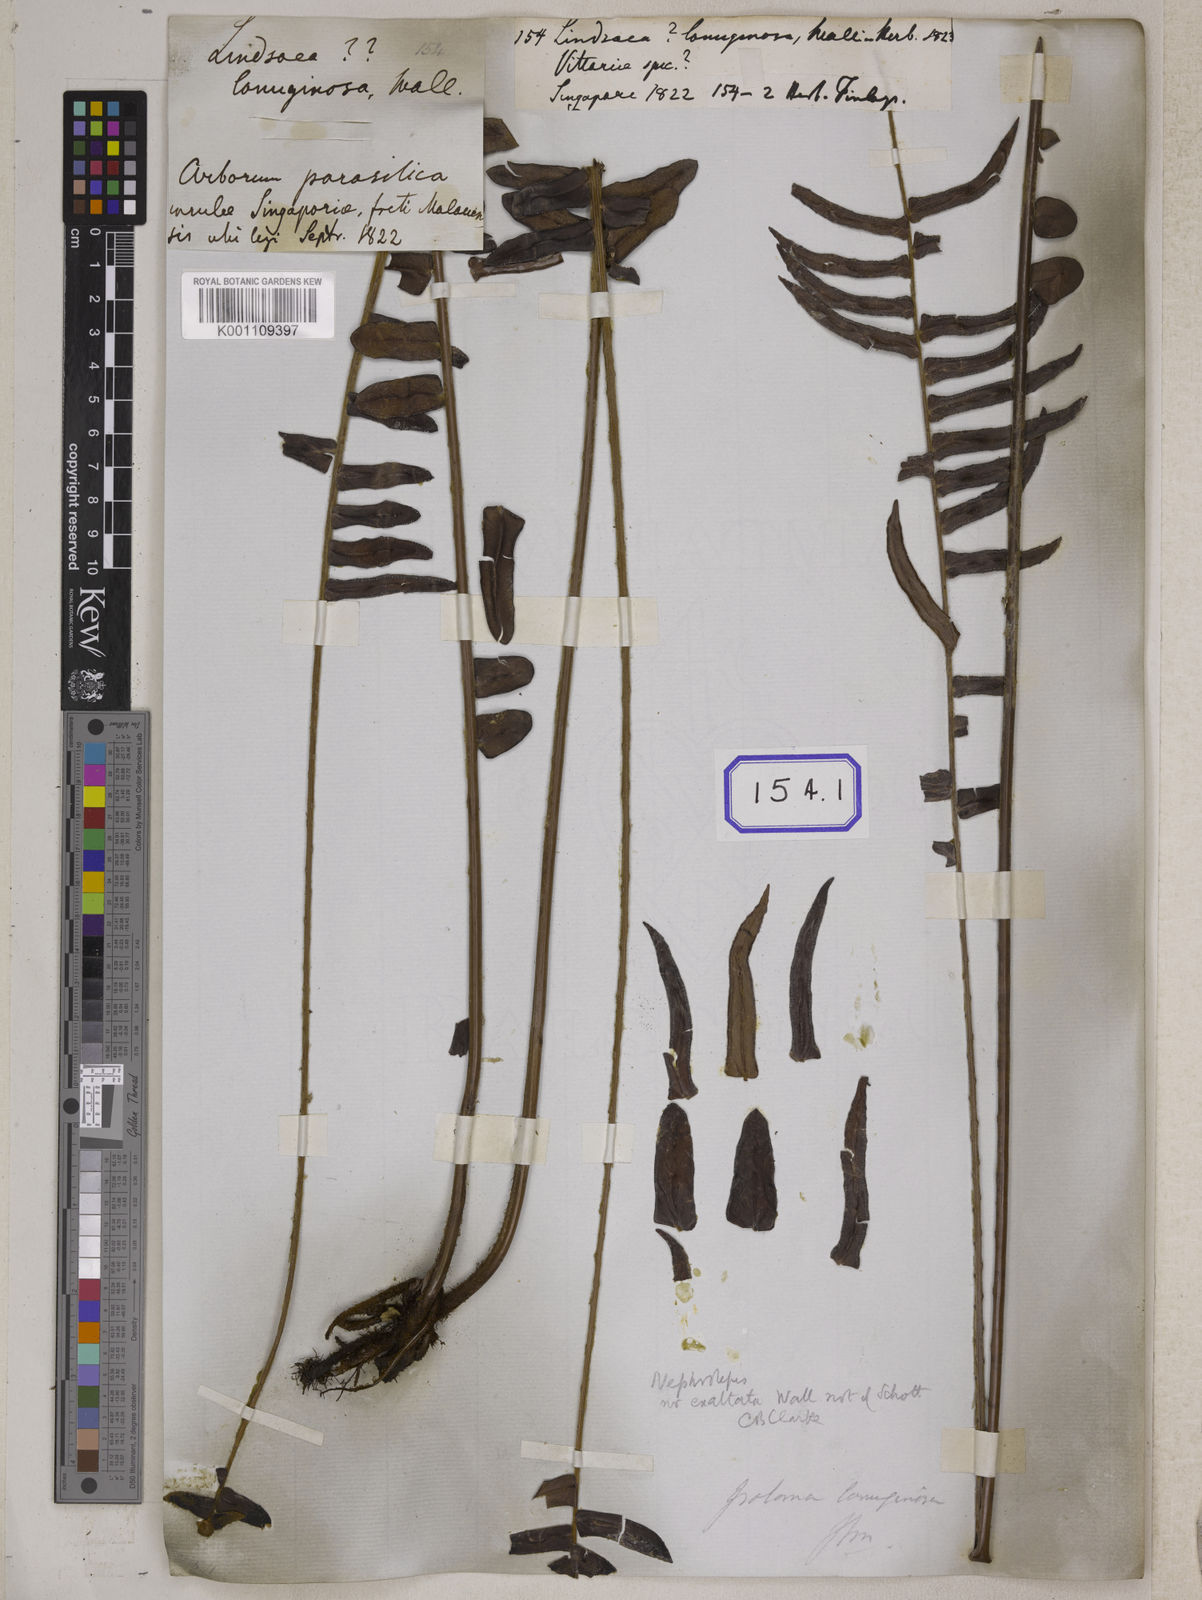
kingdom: Plantae
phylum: Tracheophyta
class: Polypodiopsida
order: Polypodiales
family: Nephrolepidaceae
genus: Nephrolepis
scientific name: Nephrolepis radicans
